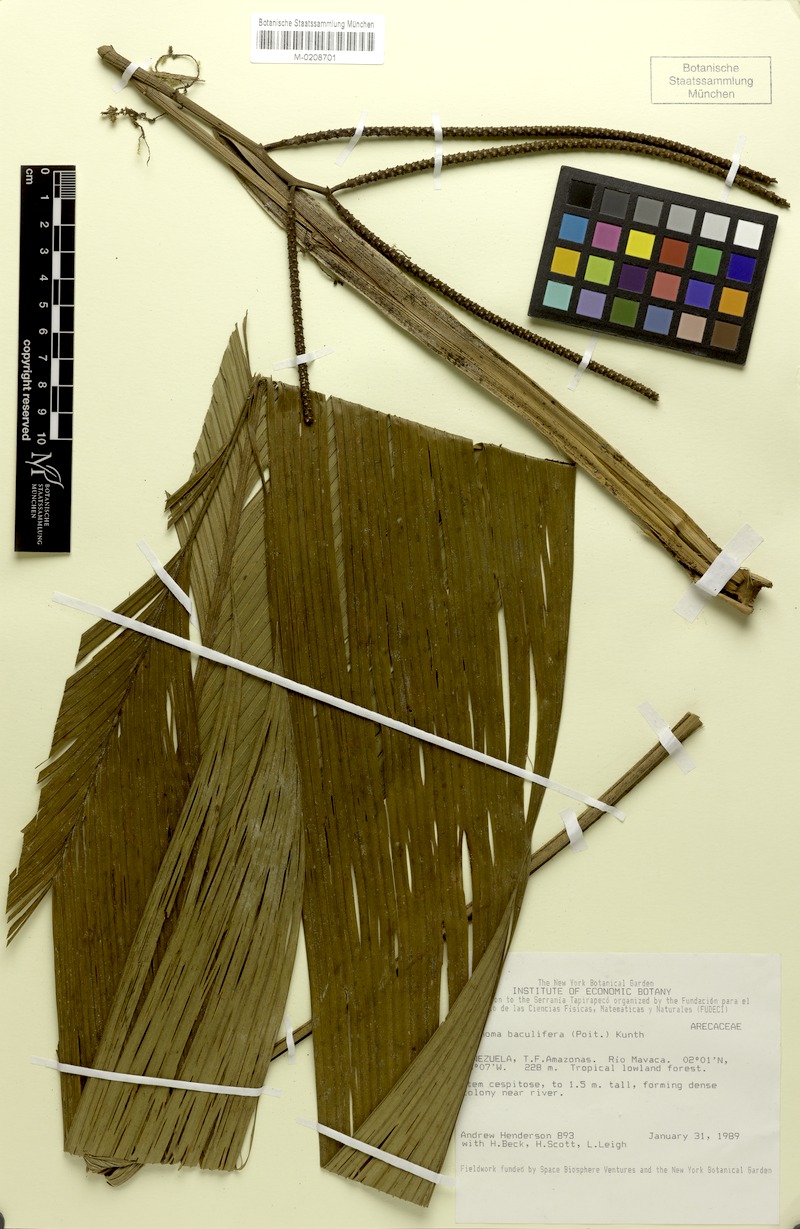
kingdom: Plantae
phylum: Tracheophyta
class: Liliopsida
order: Arecales
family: Arecaceae
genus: Geonoma
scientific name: Geonoma baculifera
